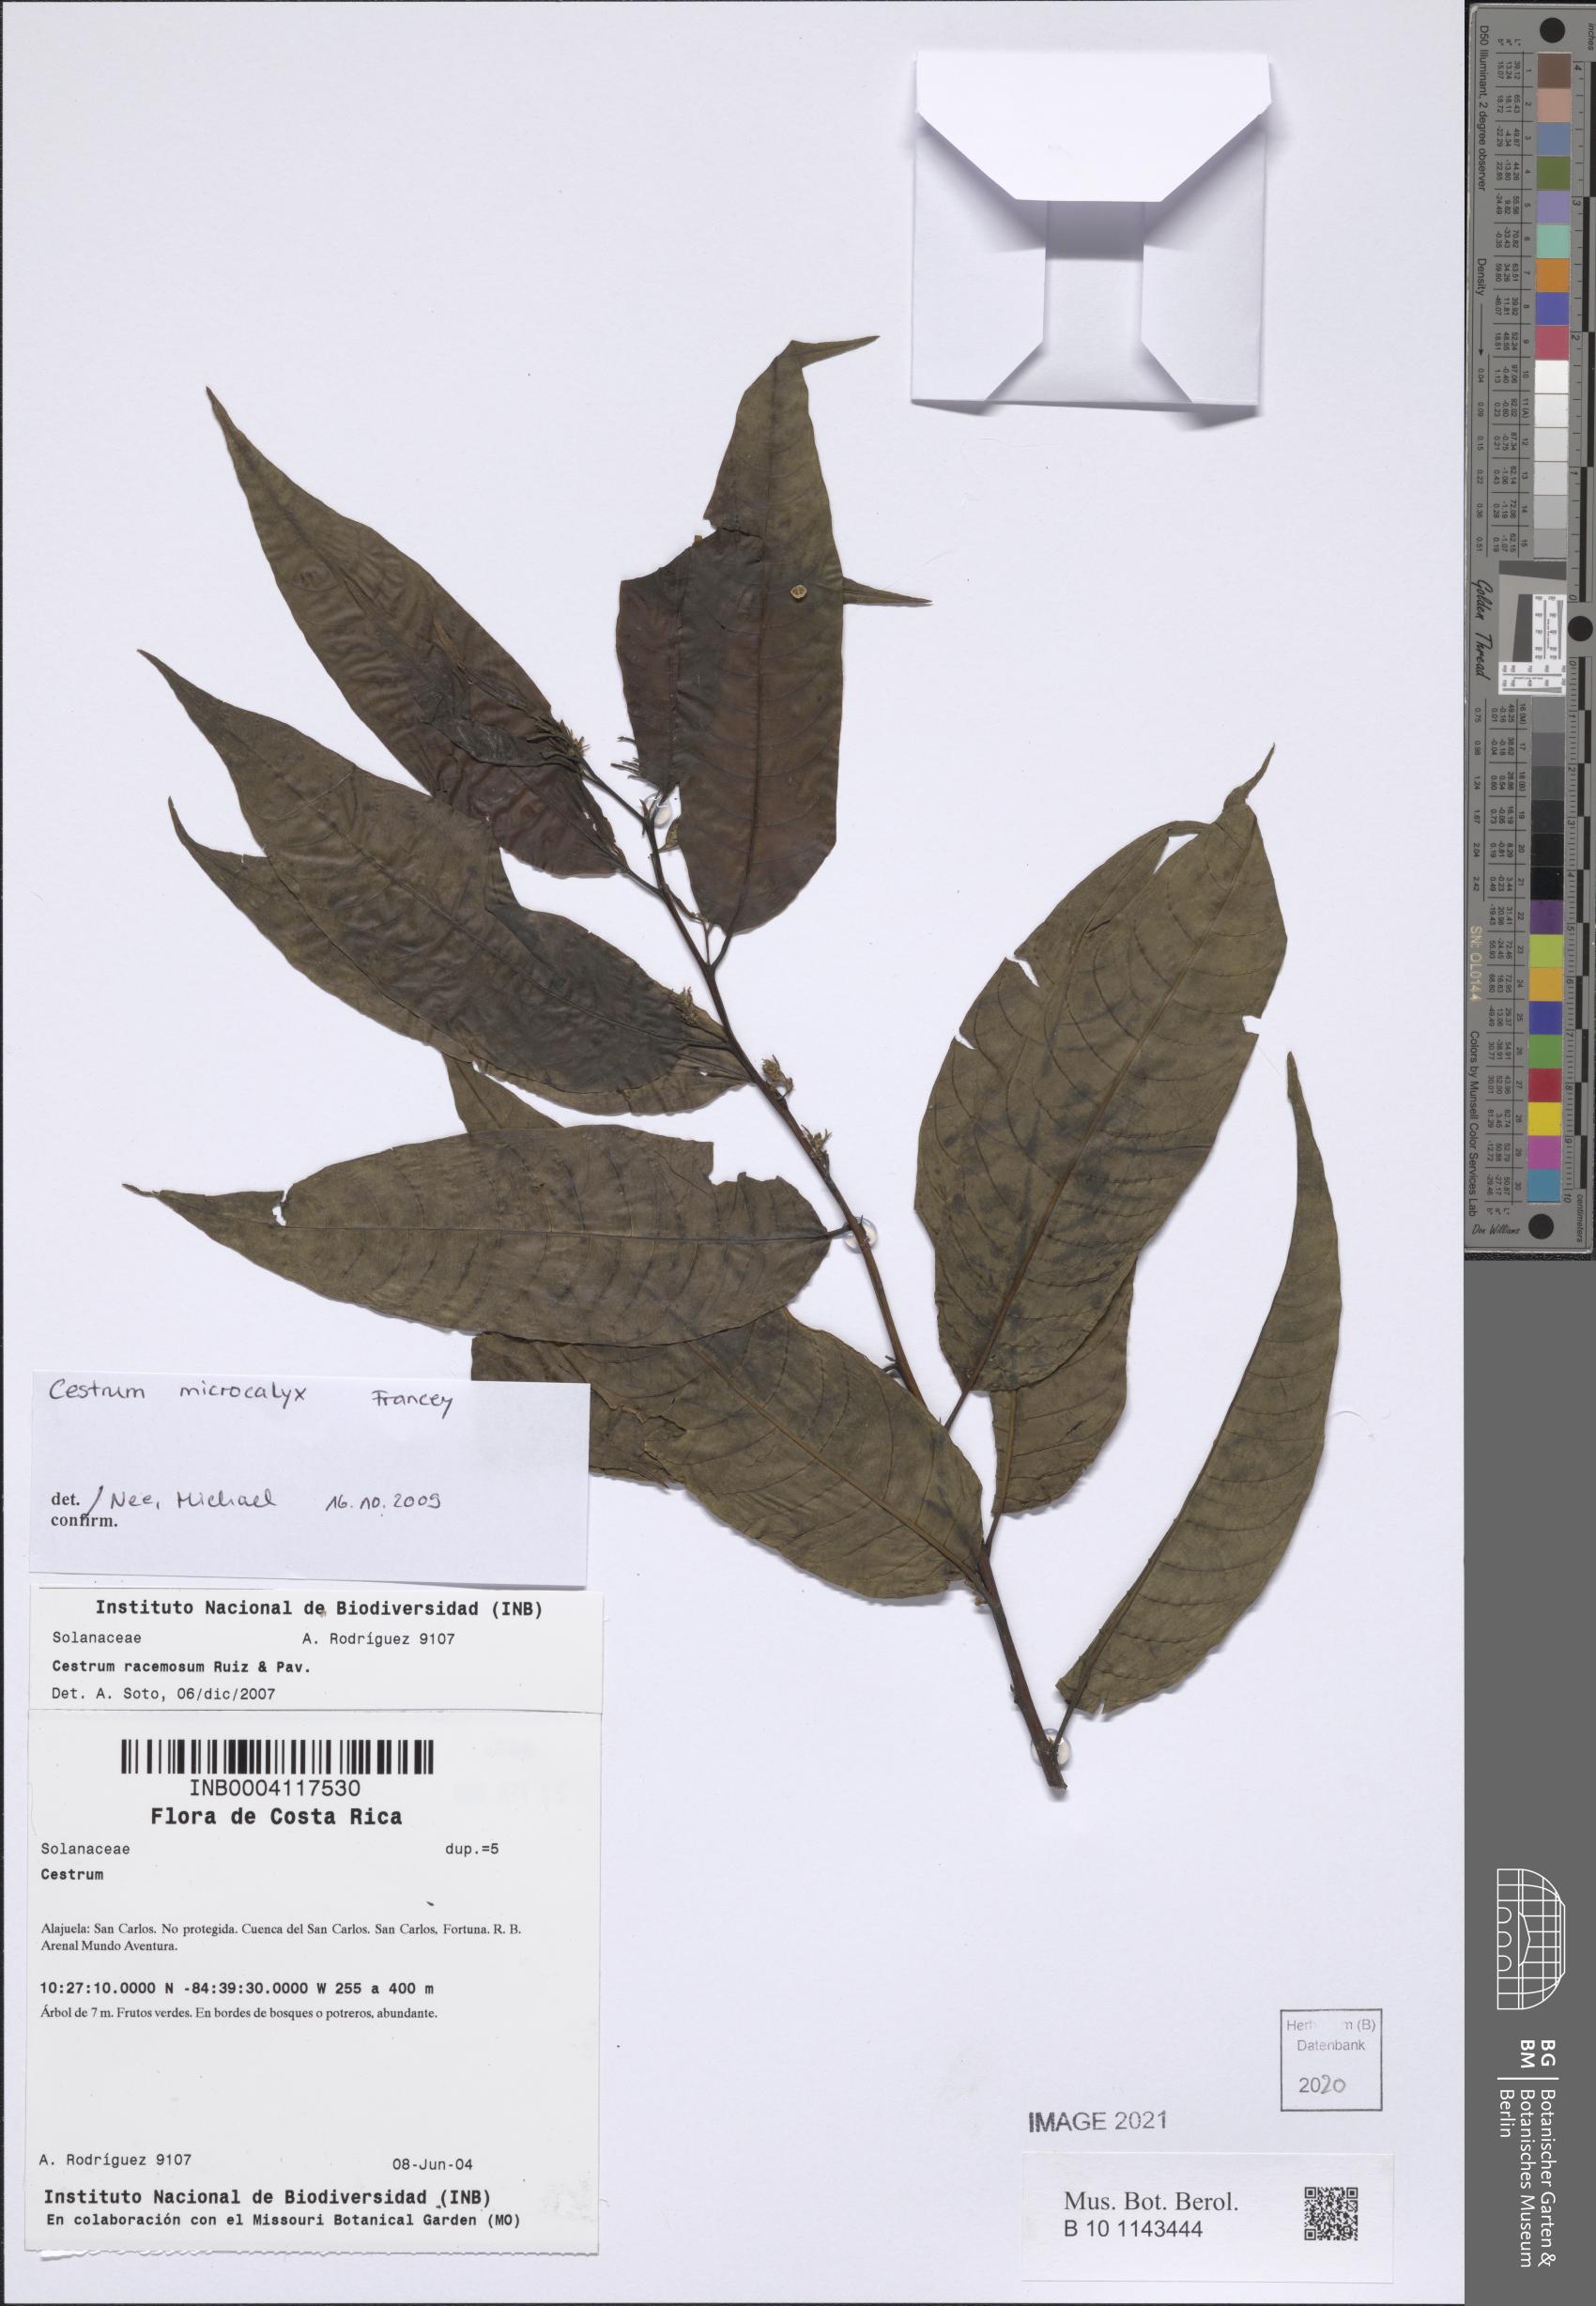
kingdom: Plantae
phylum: Tracheophyta
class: Magnoliopsida
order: Solanales
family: Solanaceae
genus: Cestrum
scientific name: Cestrum microcalyx
